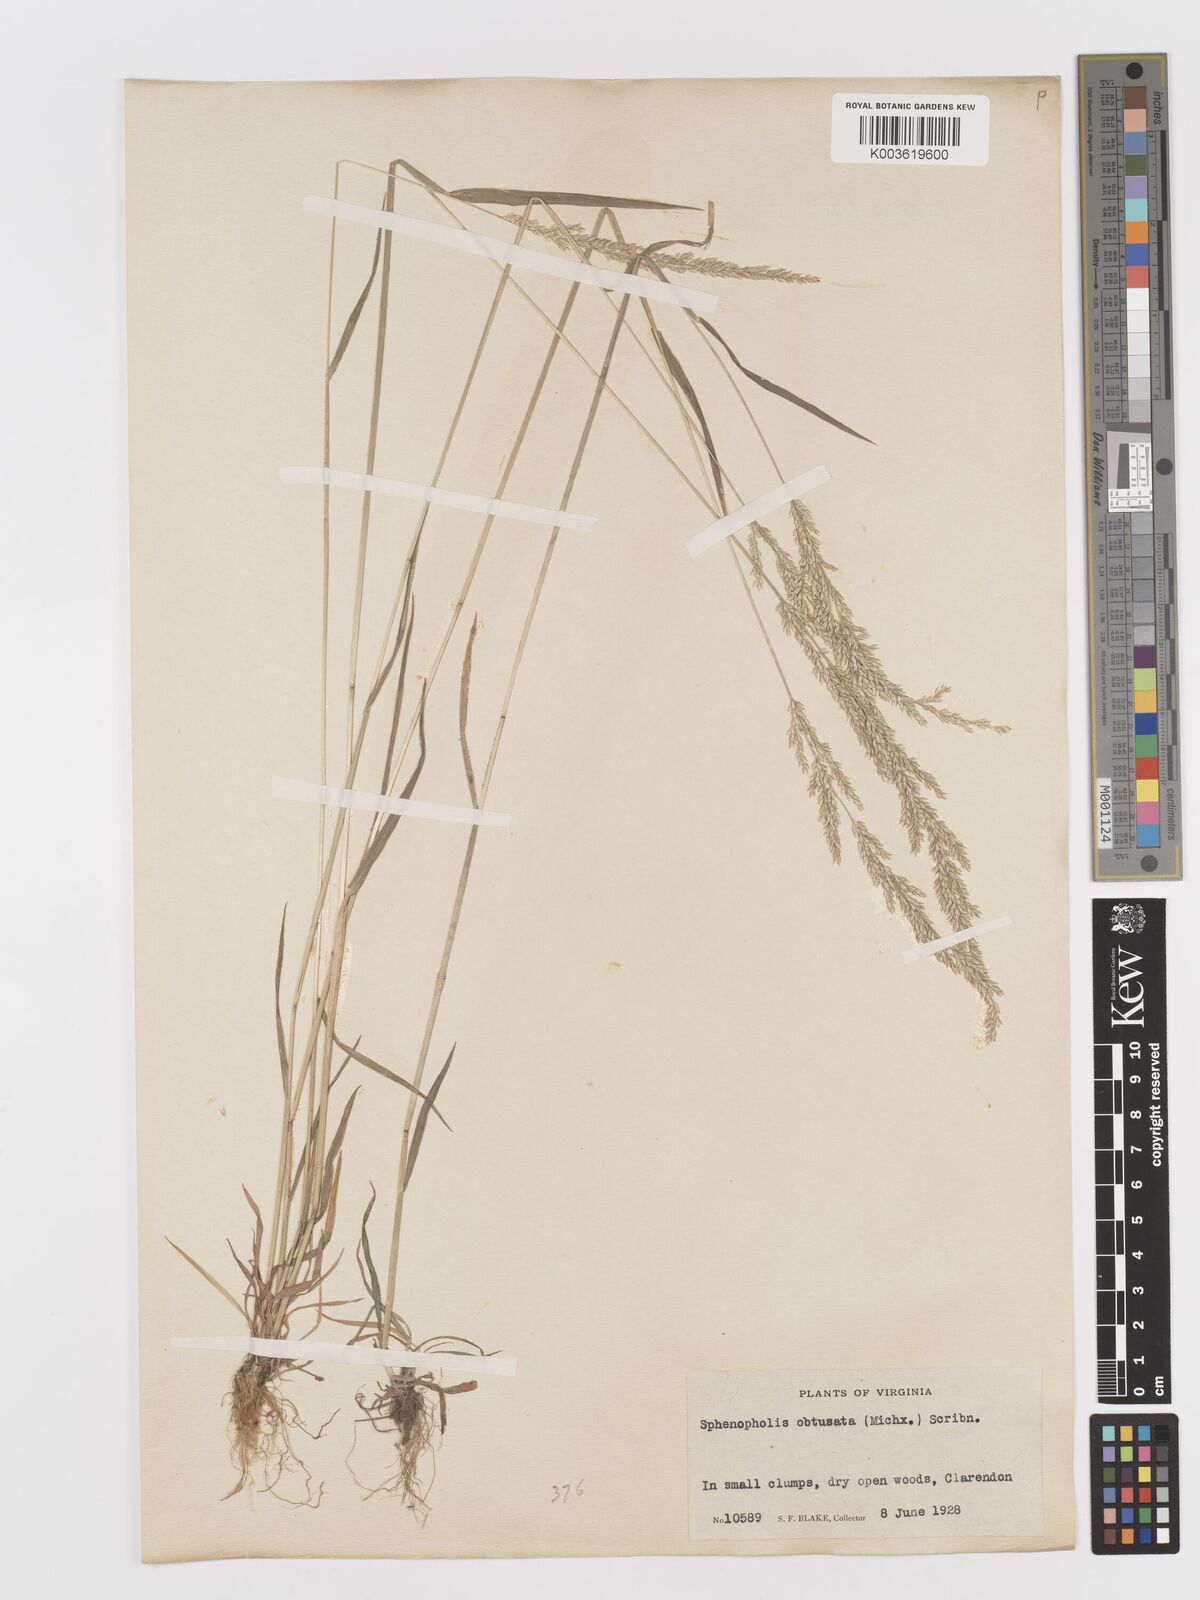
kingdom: Plantae
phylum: Tracheophyta
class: Liliopsida
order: Poales
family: Poaceae
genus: Sphenopholis
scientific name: Sphenopholis obtusata
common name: Prairie grass
